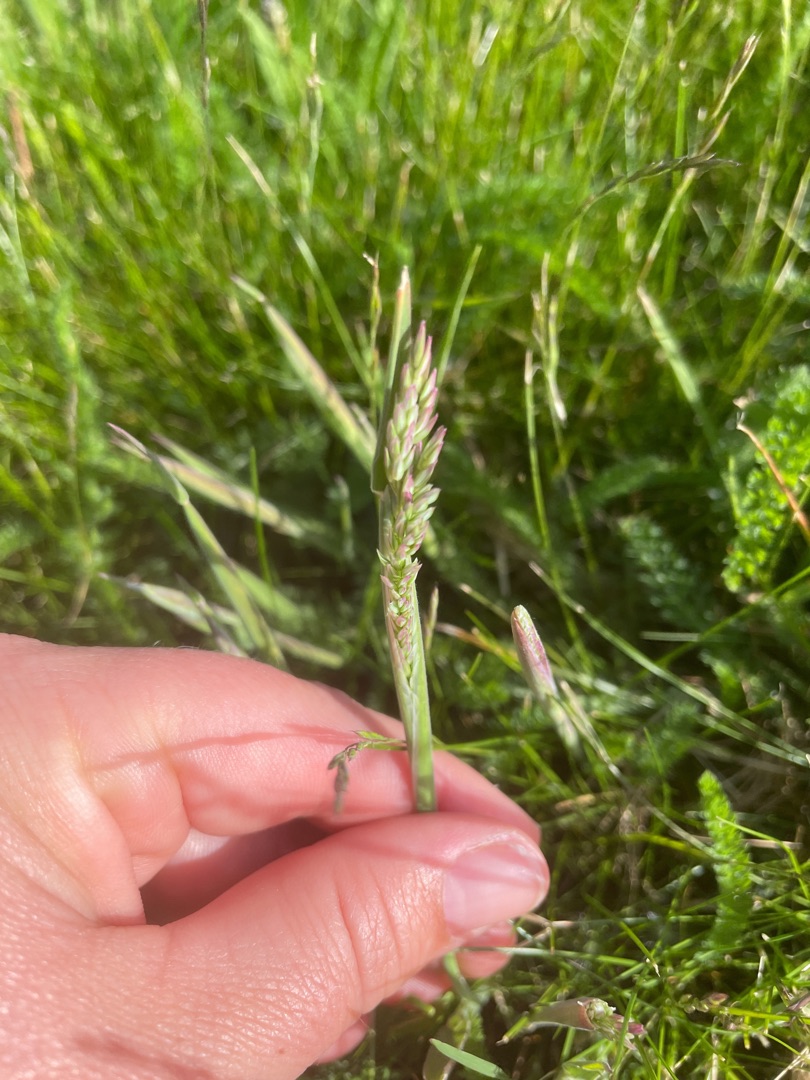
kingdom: Plantae
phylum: Tracheophyta
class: Liliopsida
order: Poales
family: Poaceae
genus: Holcus
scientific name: Holcus lanatus
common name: Fløjlsgræs
